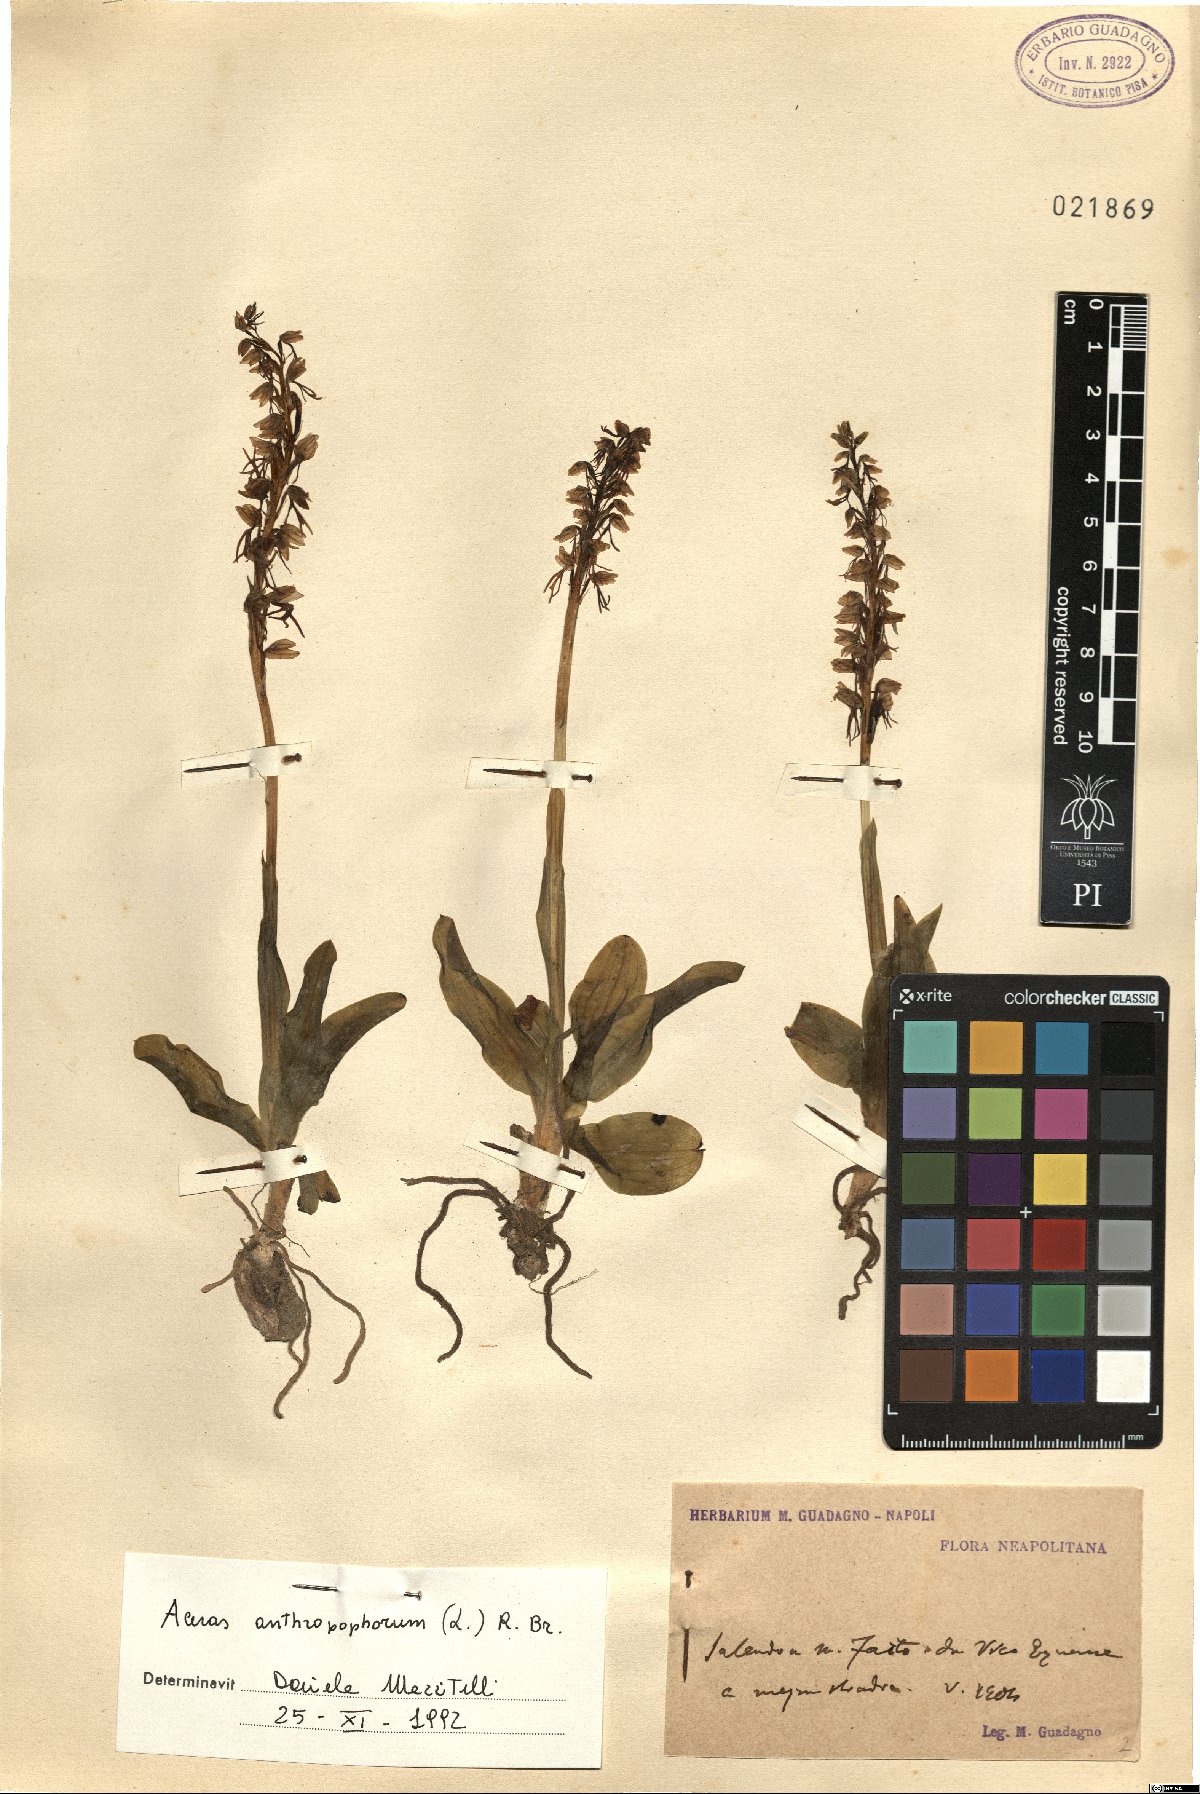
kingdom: Plantae
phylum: Tracheophyta
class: Liliopsida
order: Asparagales
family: Orchidaceae
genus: Orchis
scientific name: Orchis anthropophora
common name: Man orchid
